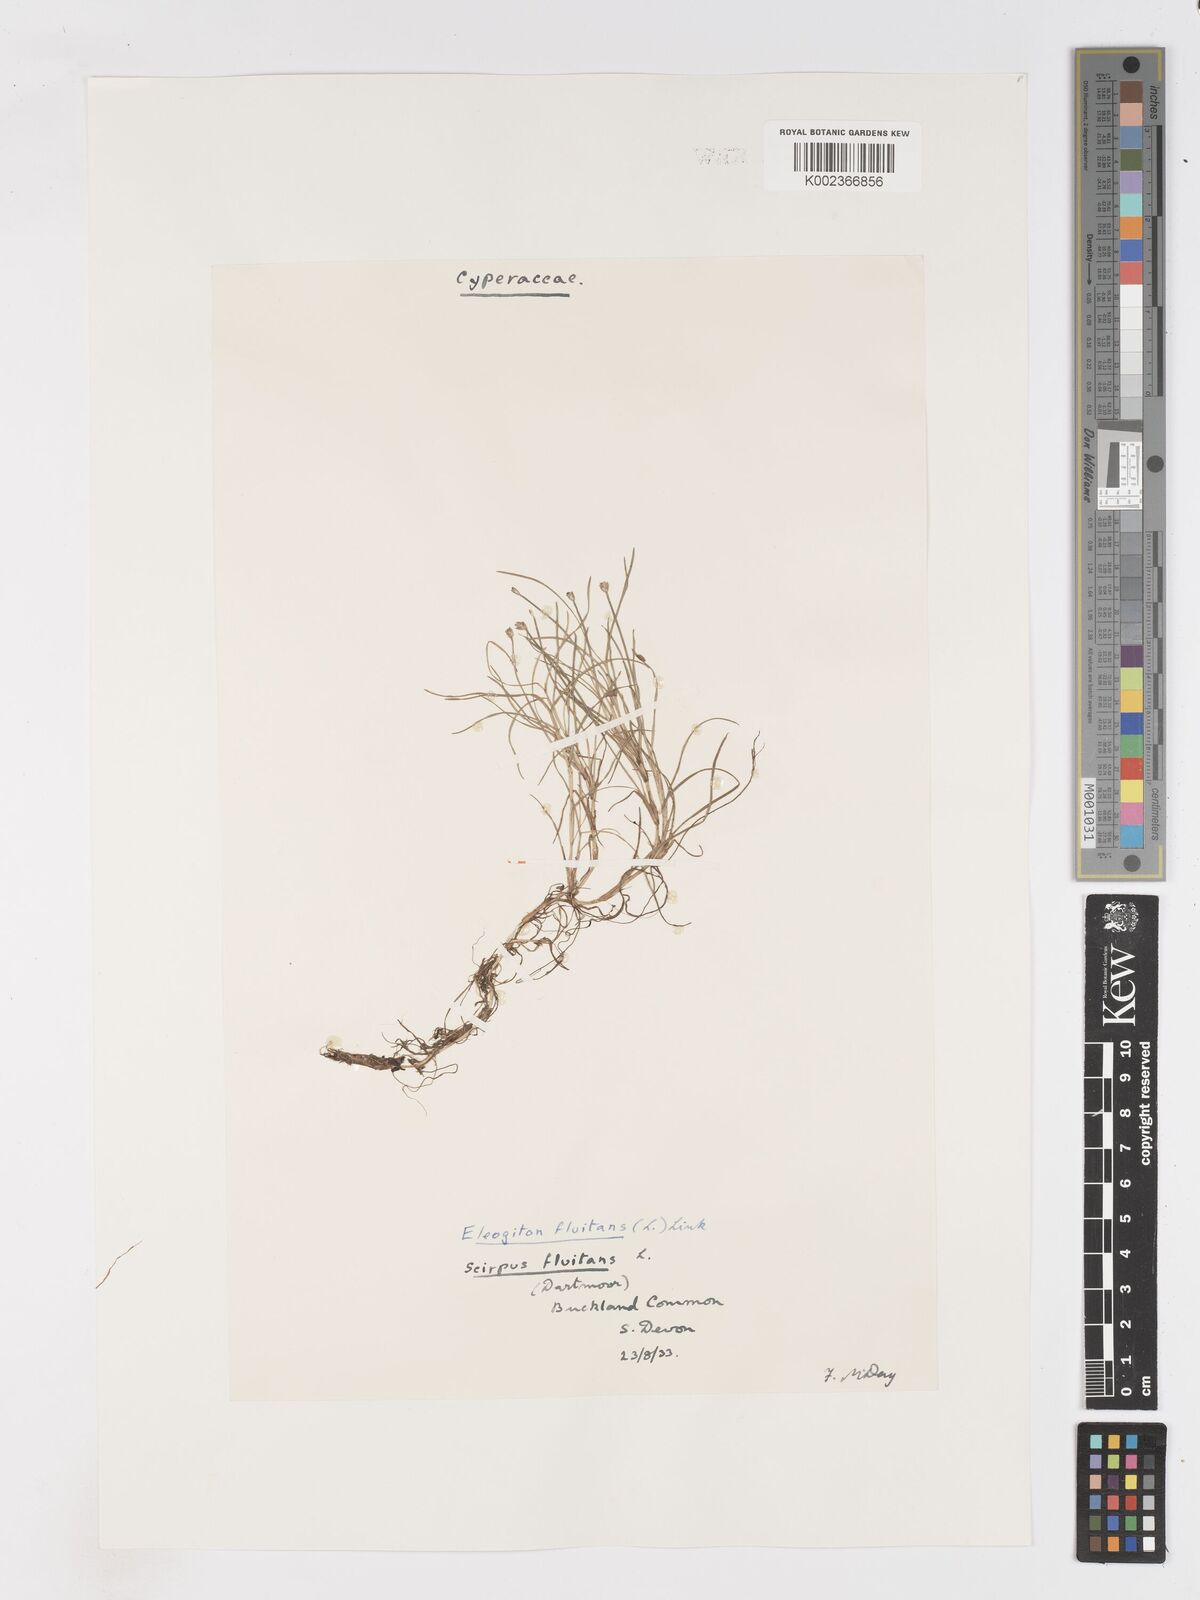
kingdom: Plantae
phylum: Tracheophyta
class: Liliopsida
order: Poales
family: Cyperaceae
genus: Isolepis
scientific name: Isolepis fluitans
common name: Floating club-rush
